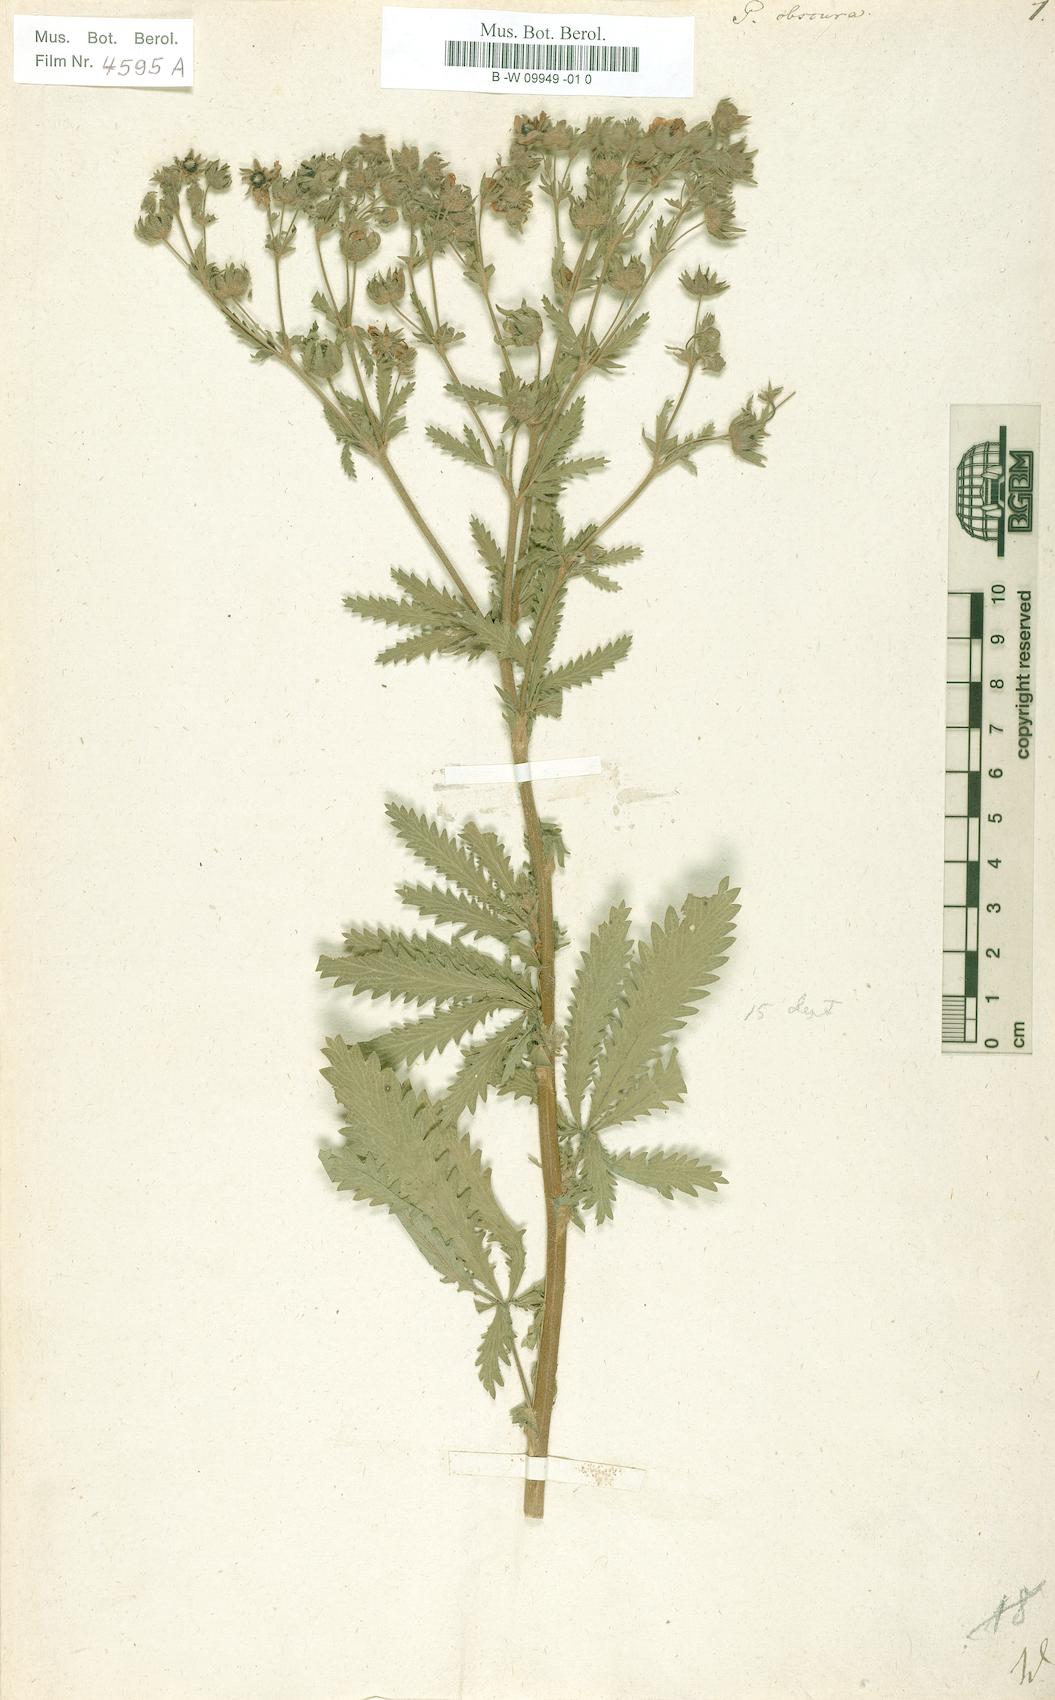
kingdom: Plantae
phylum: Tracheophyta
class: Magnoliopsida
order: Rosales
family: Rosaceae
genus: Potentilla
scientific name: Potentilla recta
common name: Sulphur cinquefoil
